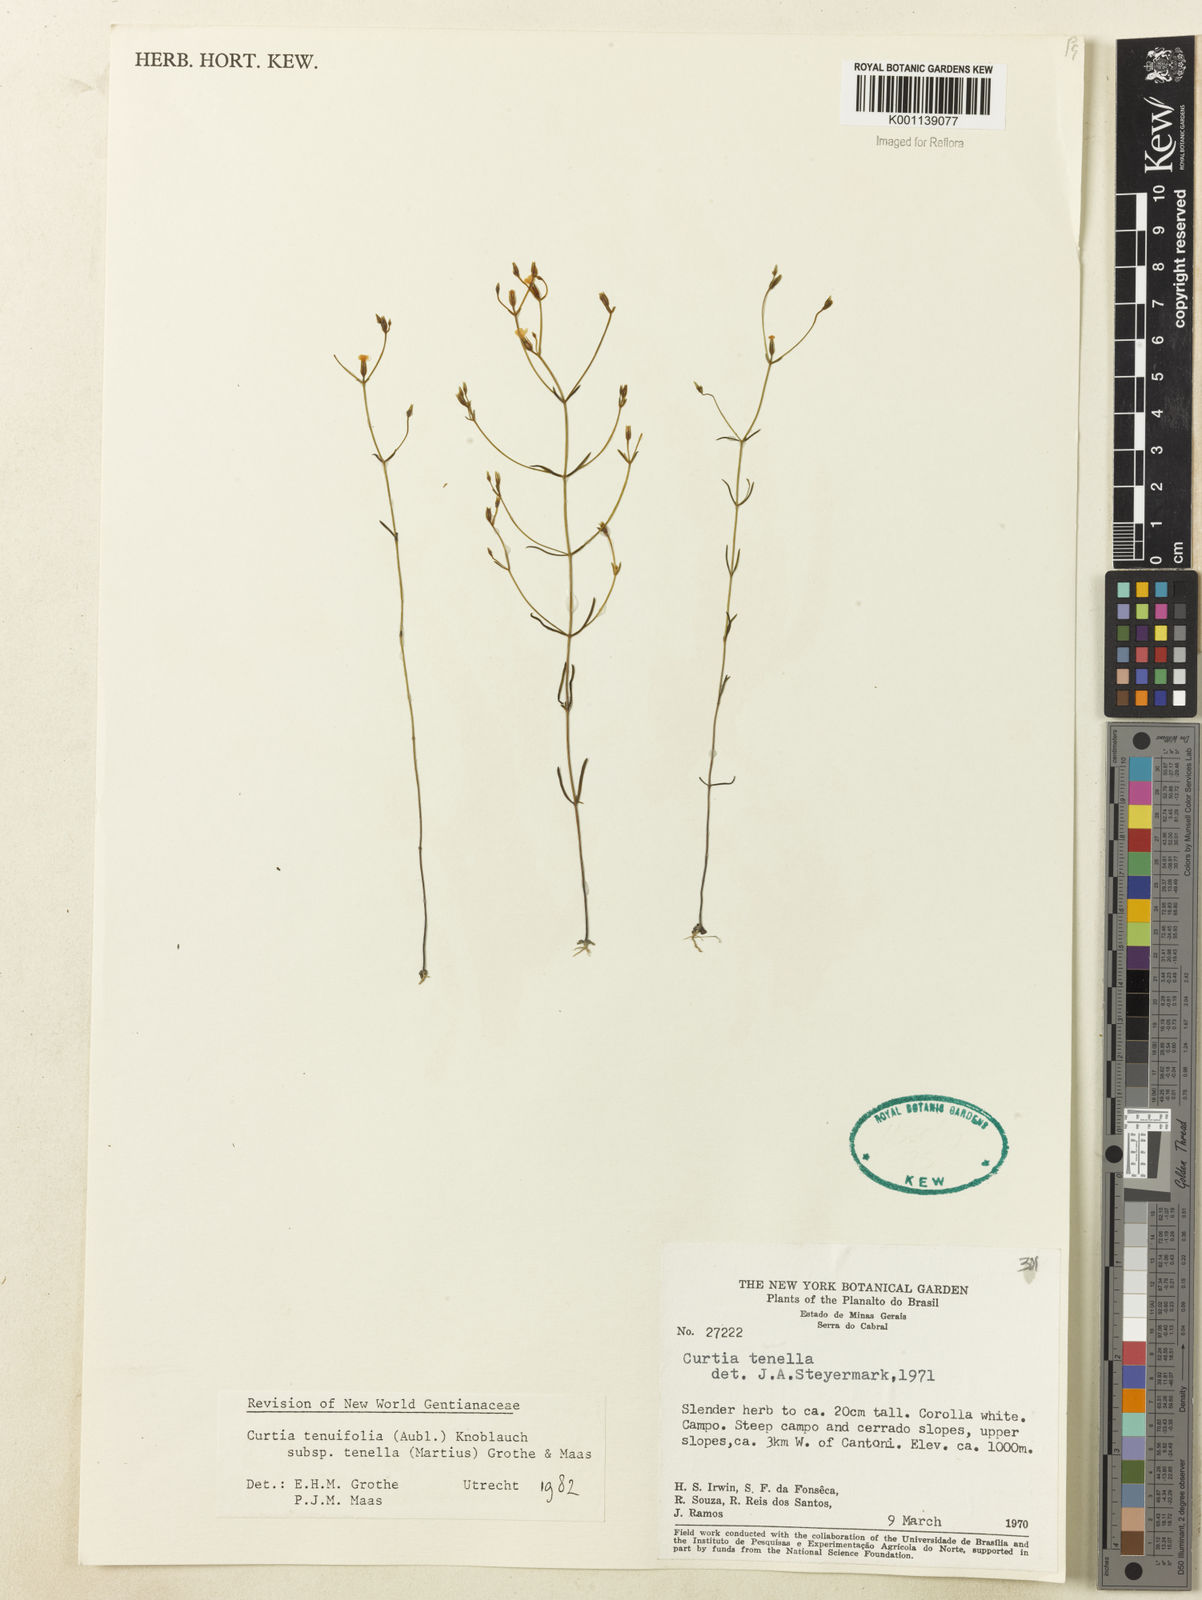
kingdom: Plantae
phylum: Tracheophyta
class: Magnoliopsida
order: Gentianales
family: Gentianaceae
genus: Curtia
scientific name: Curtia tenella
